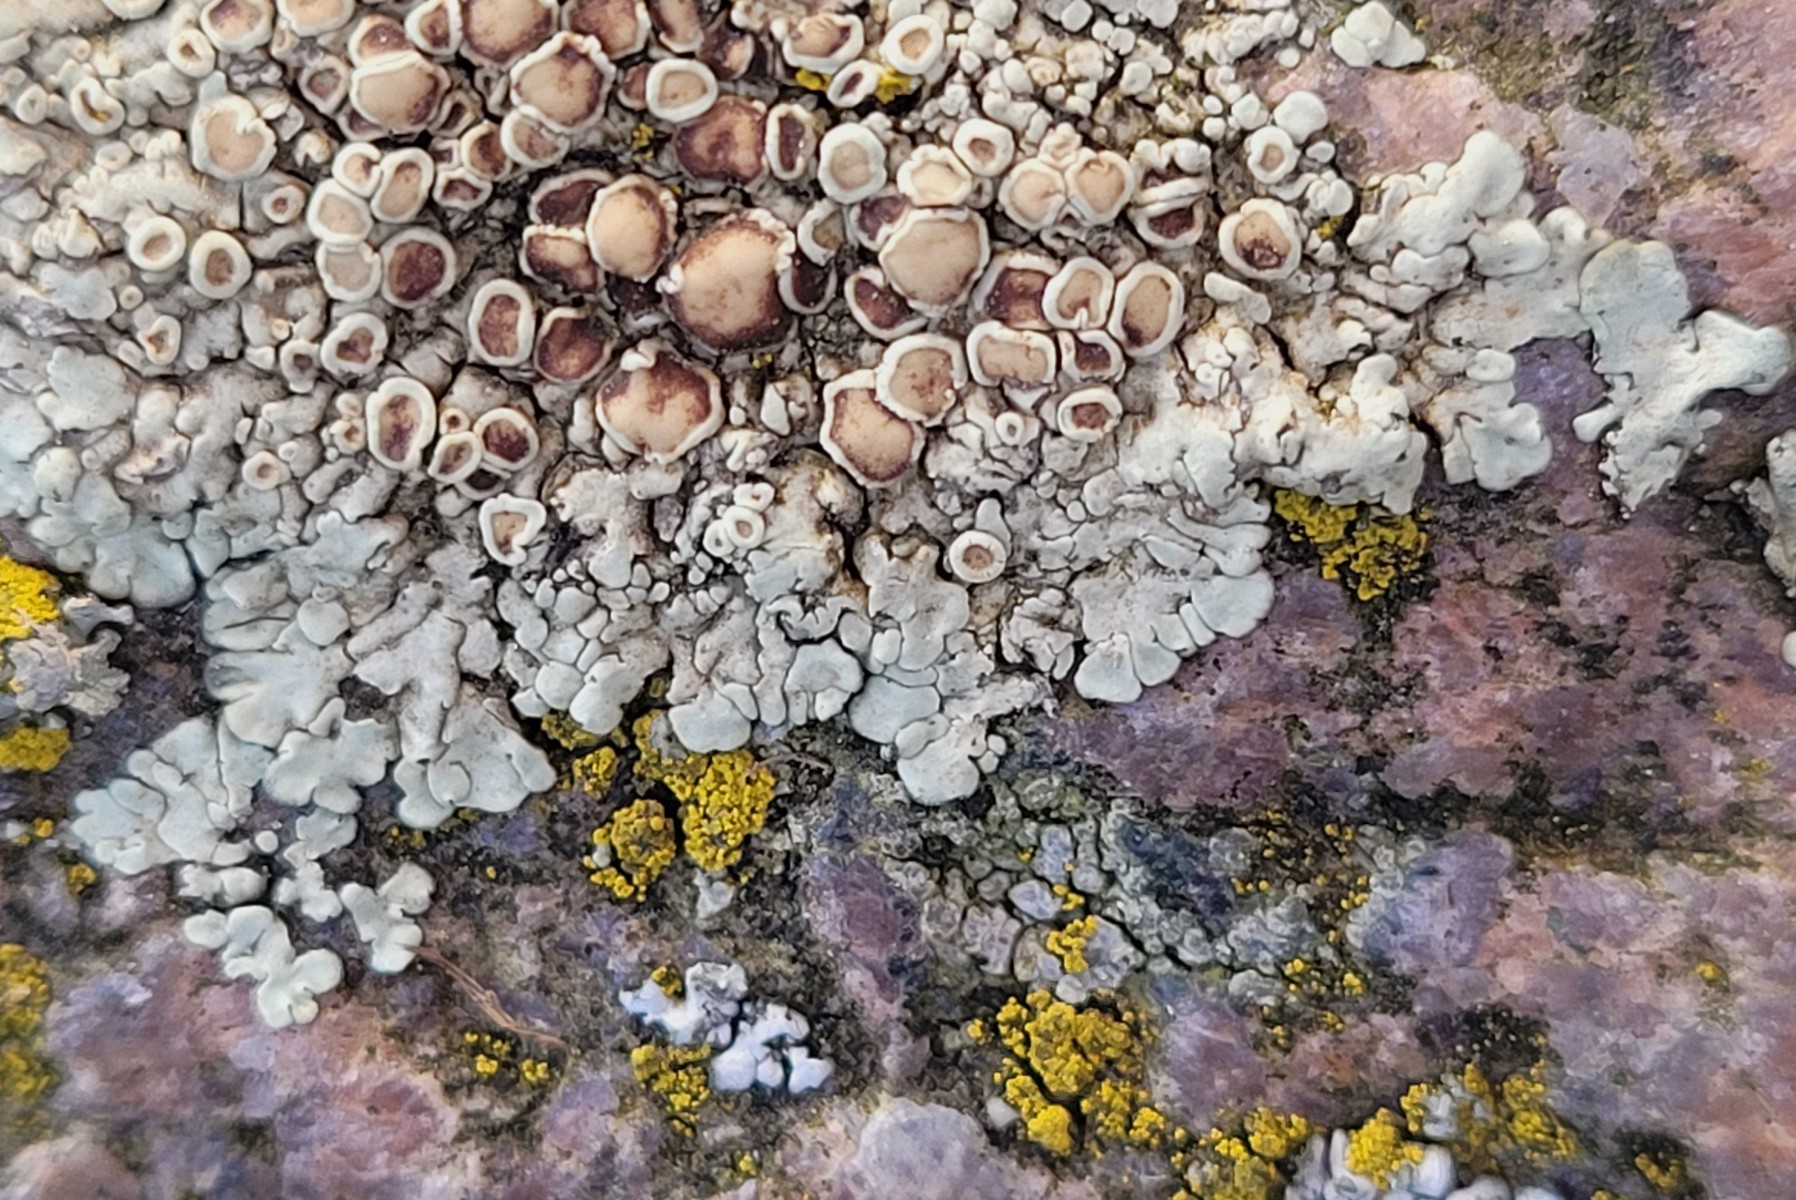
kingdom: Fungi
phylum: Ascomycota
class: Lecanoromycetes
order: Lecanorales
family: Lecanoraceae
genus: Protoparmeliopsis
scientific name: Protoparmeliopsis muralis
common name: randfliget kantskivelav
